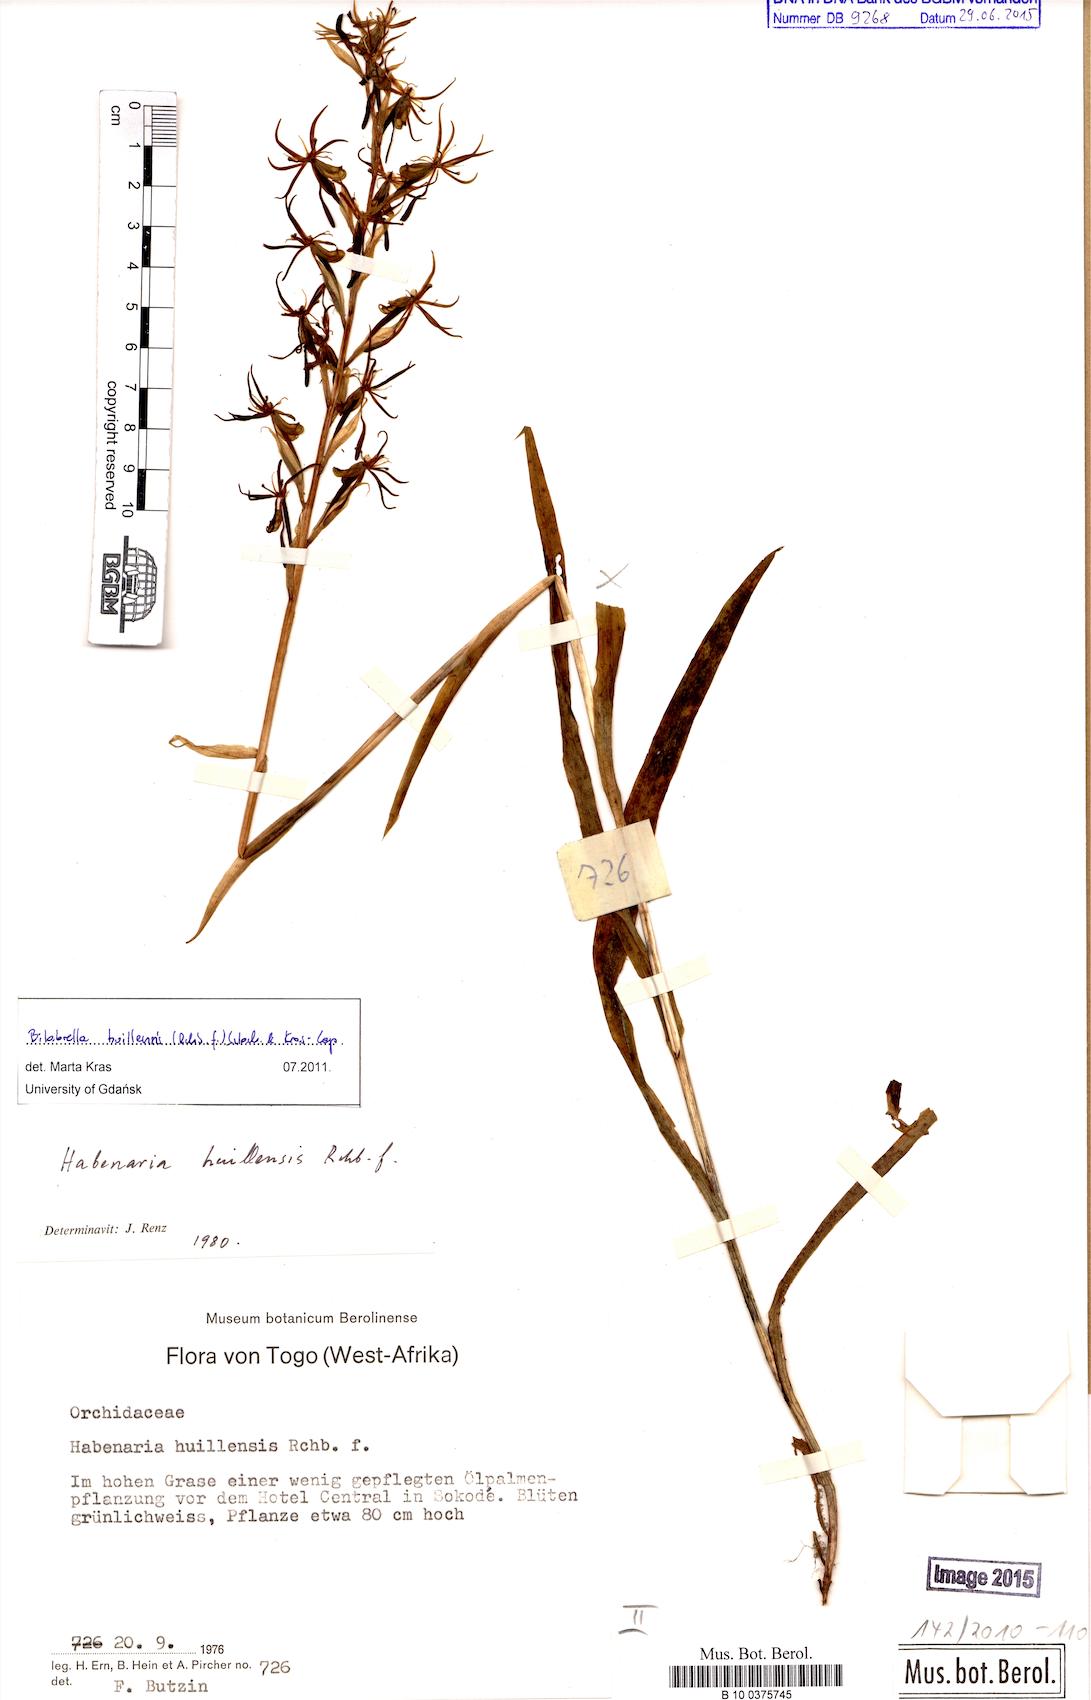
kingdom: Plantae
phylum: Tracheophyta
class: Liliopsida
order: Asparagales
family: Orchidaceae
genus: Habenaria
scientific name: Habenaria huillensis
